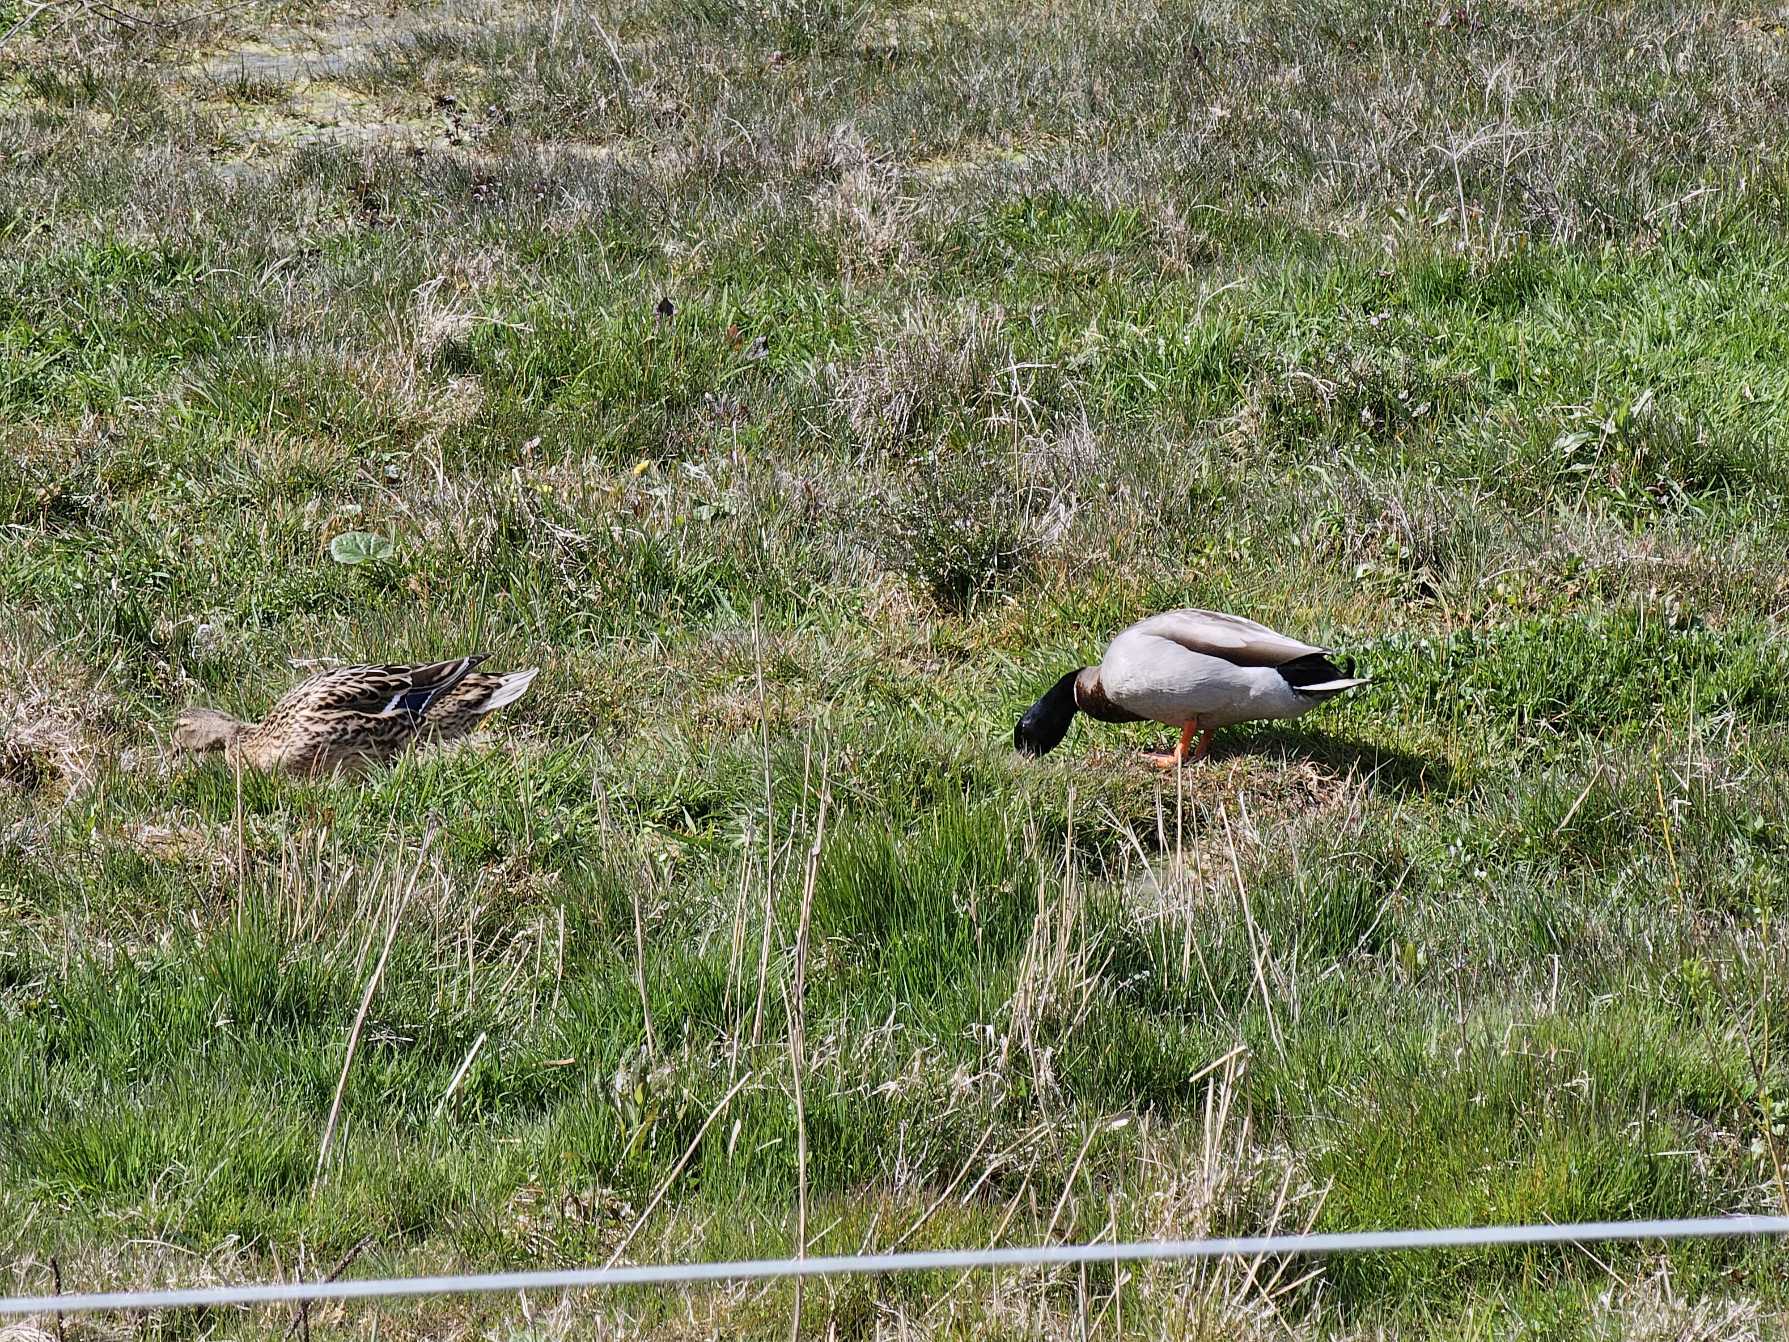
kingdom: Animalia
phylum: Chordata
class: Aves
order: Anseriformes
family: Anatidae
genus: Anas
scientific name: Anas platyrhynchos
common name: Gråand
